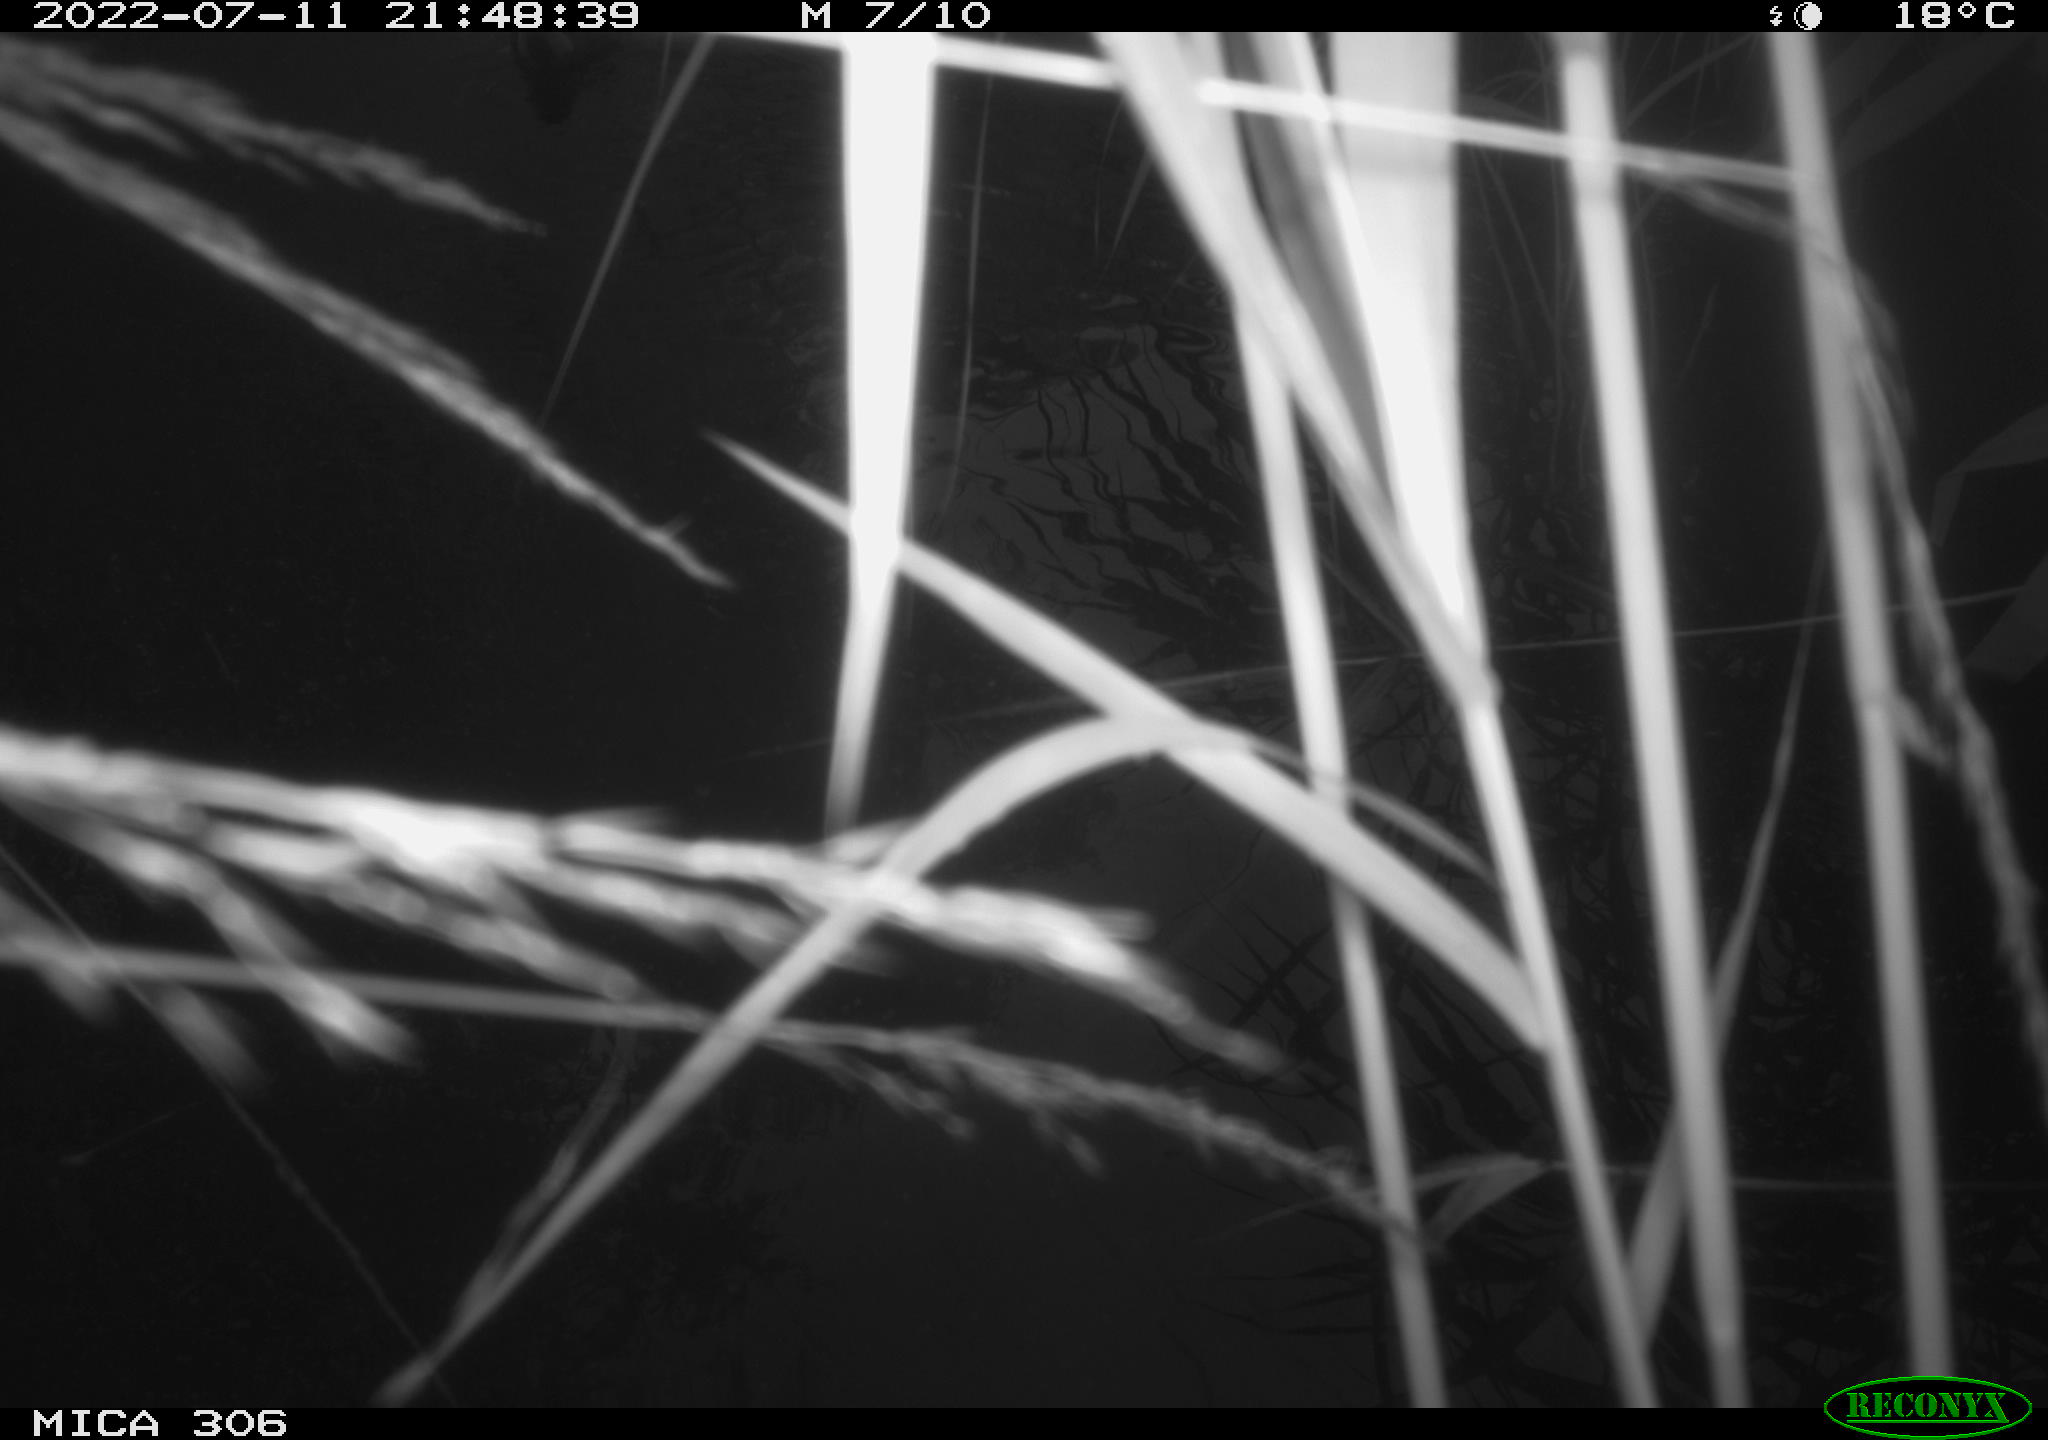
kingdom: Animalia
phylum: Chordata
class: Aves
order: Gruiformes
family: Rallidae
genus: Gallinula
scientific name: Gallinula chloropus
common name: Common moorhen
